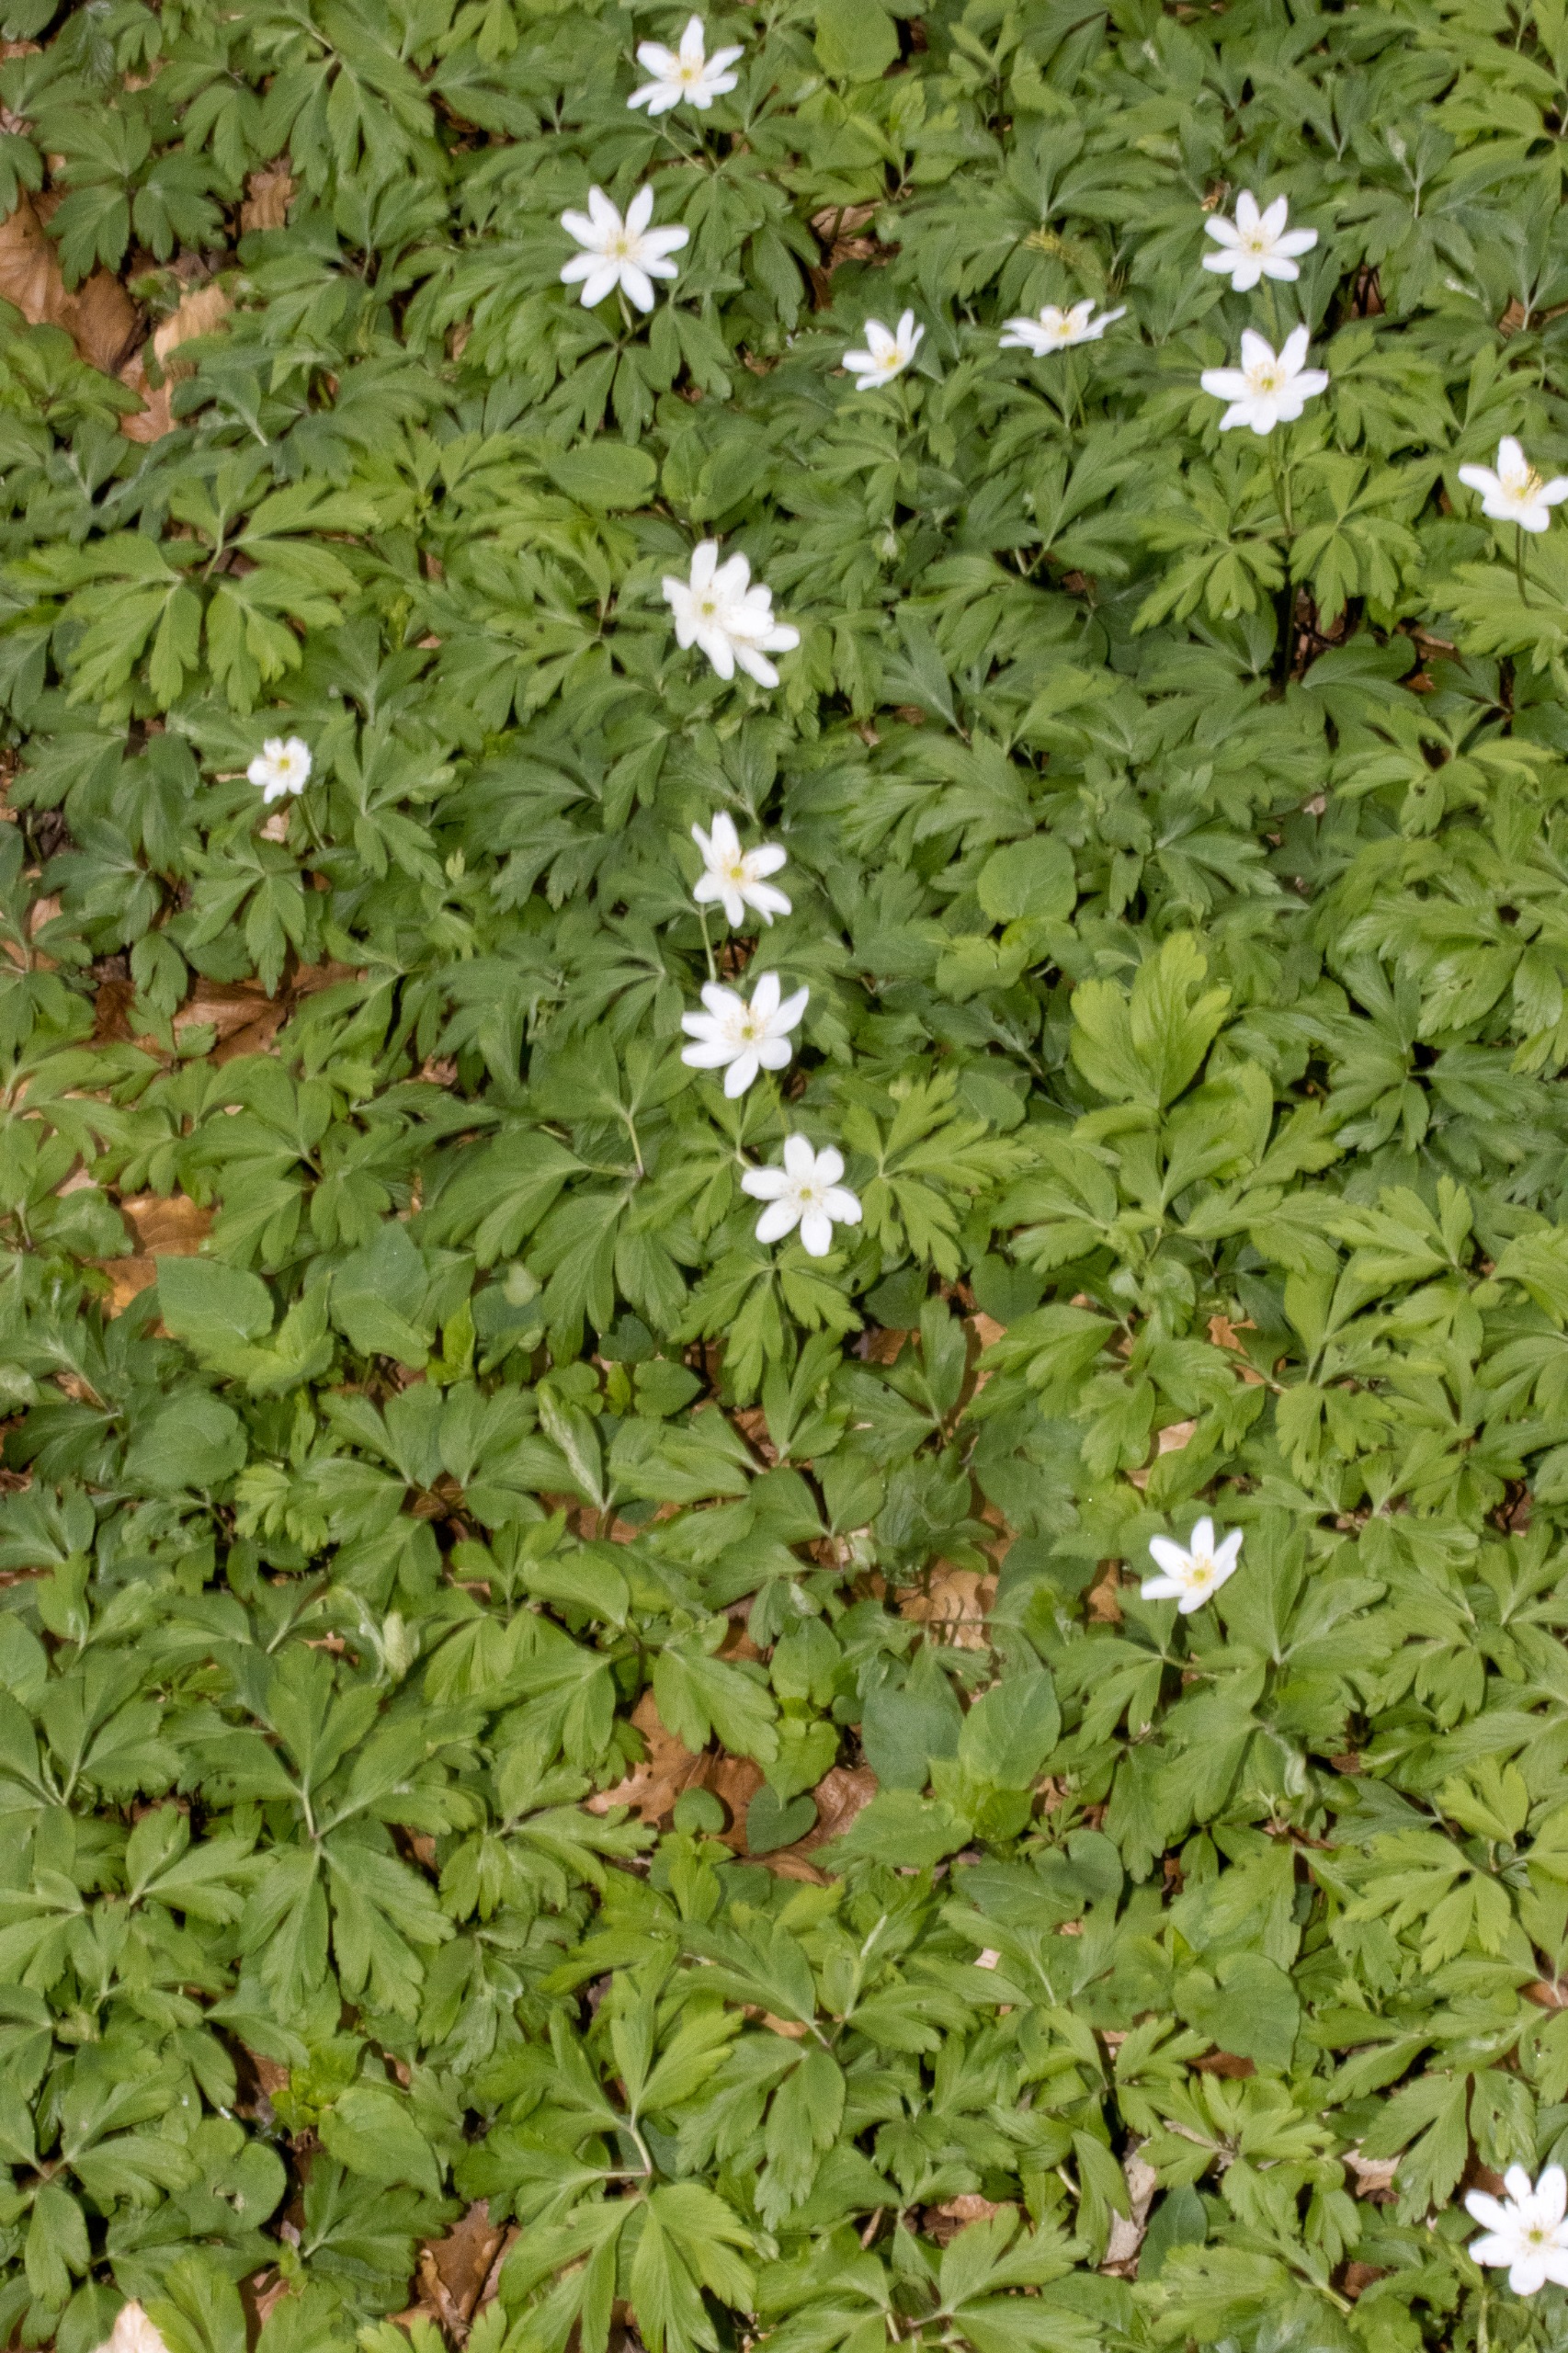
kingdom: Plantae
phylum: Tracheophyta
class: Magnoliopsida
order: Ranunculales
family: Ranunculaceae
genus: Anemone
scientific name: Anemone nemorosa
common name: Hvid anemone
